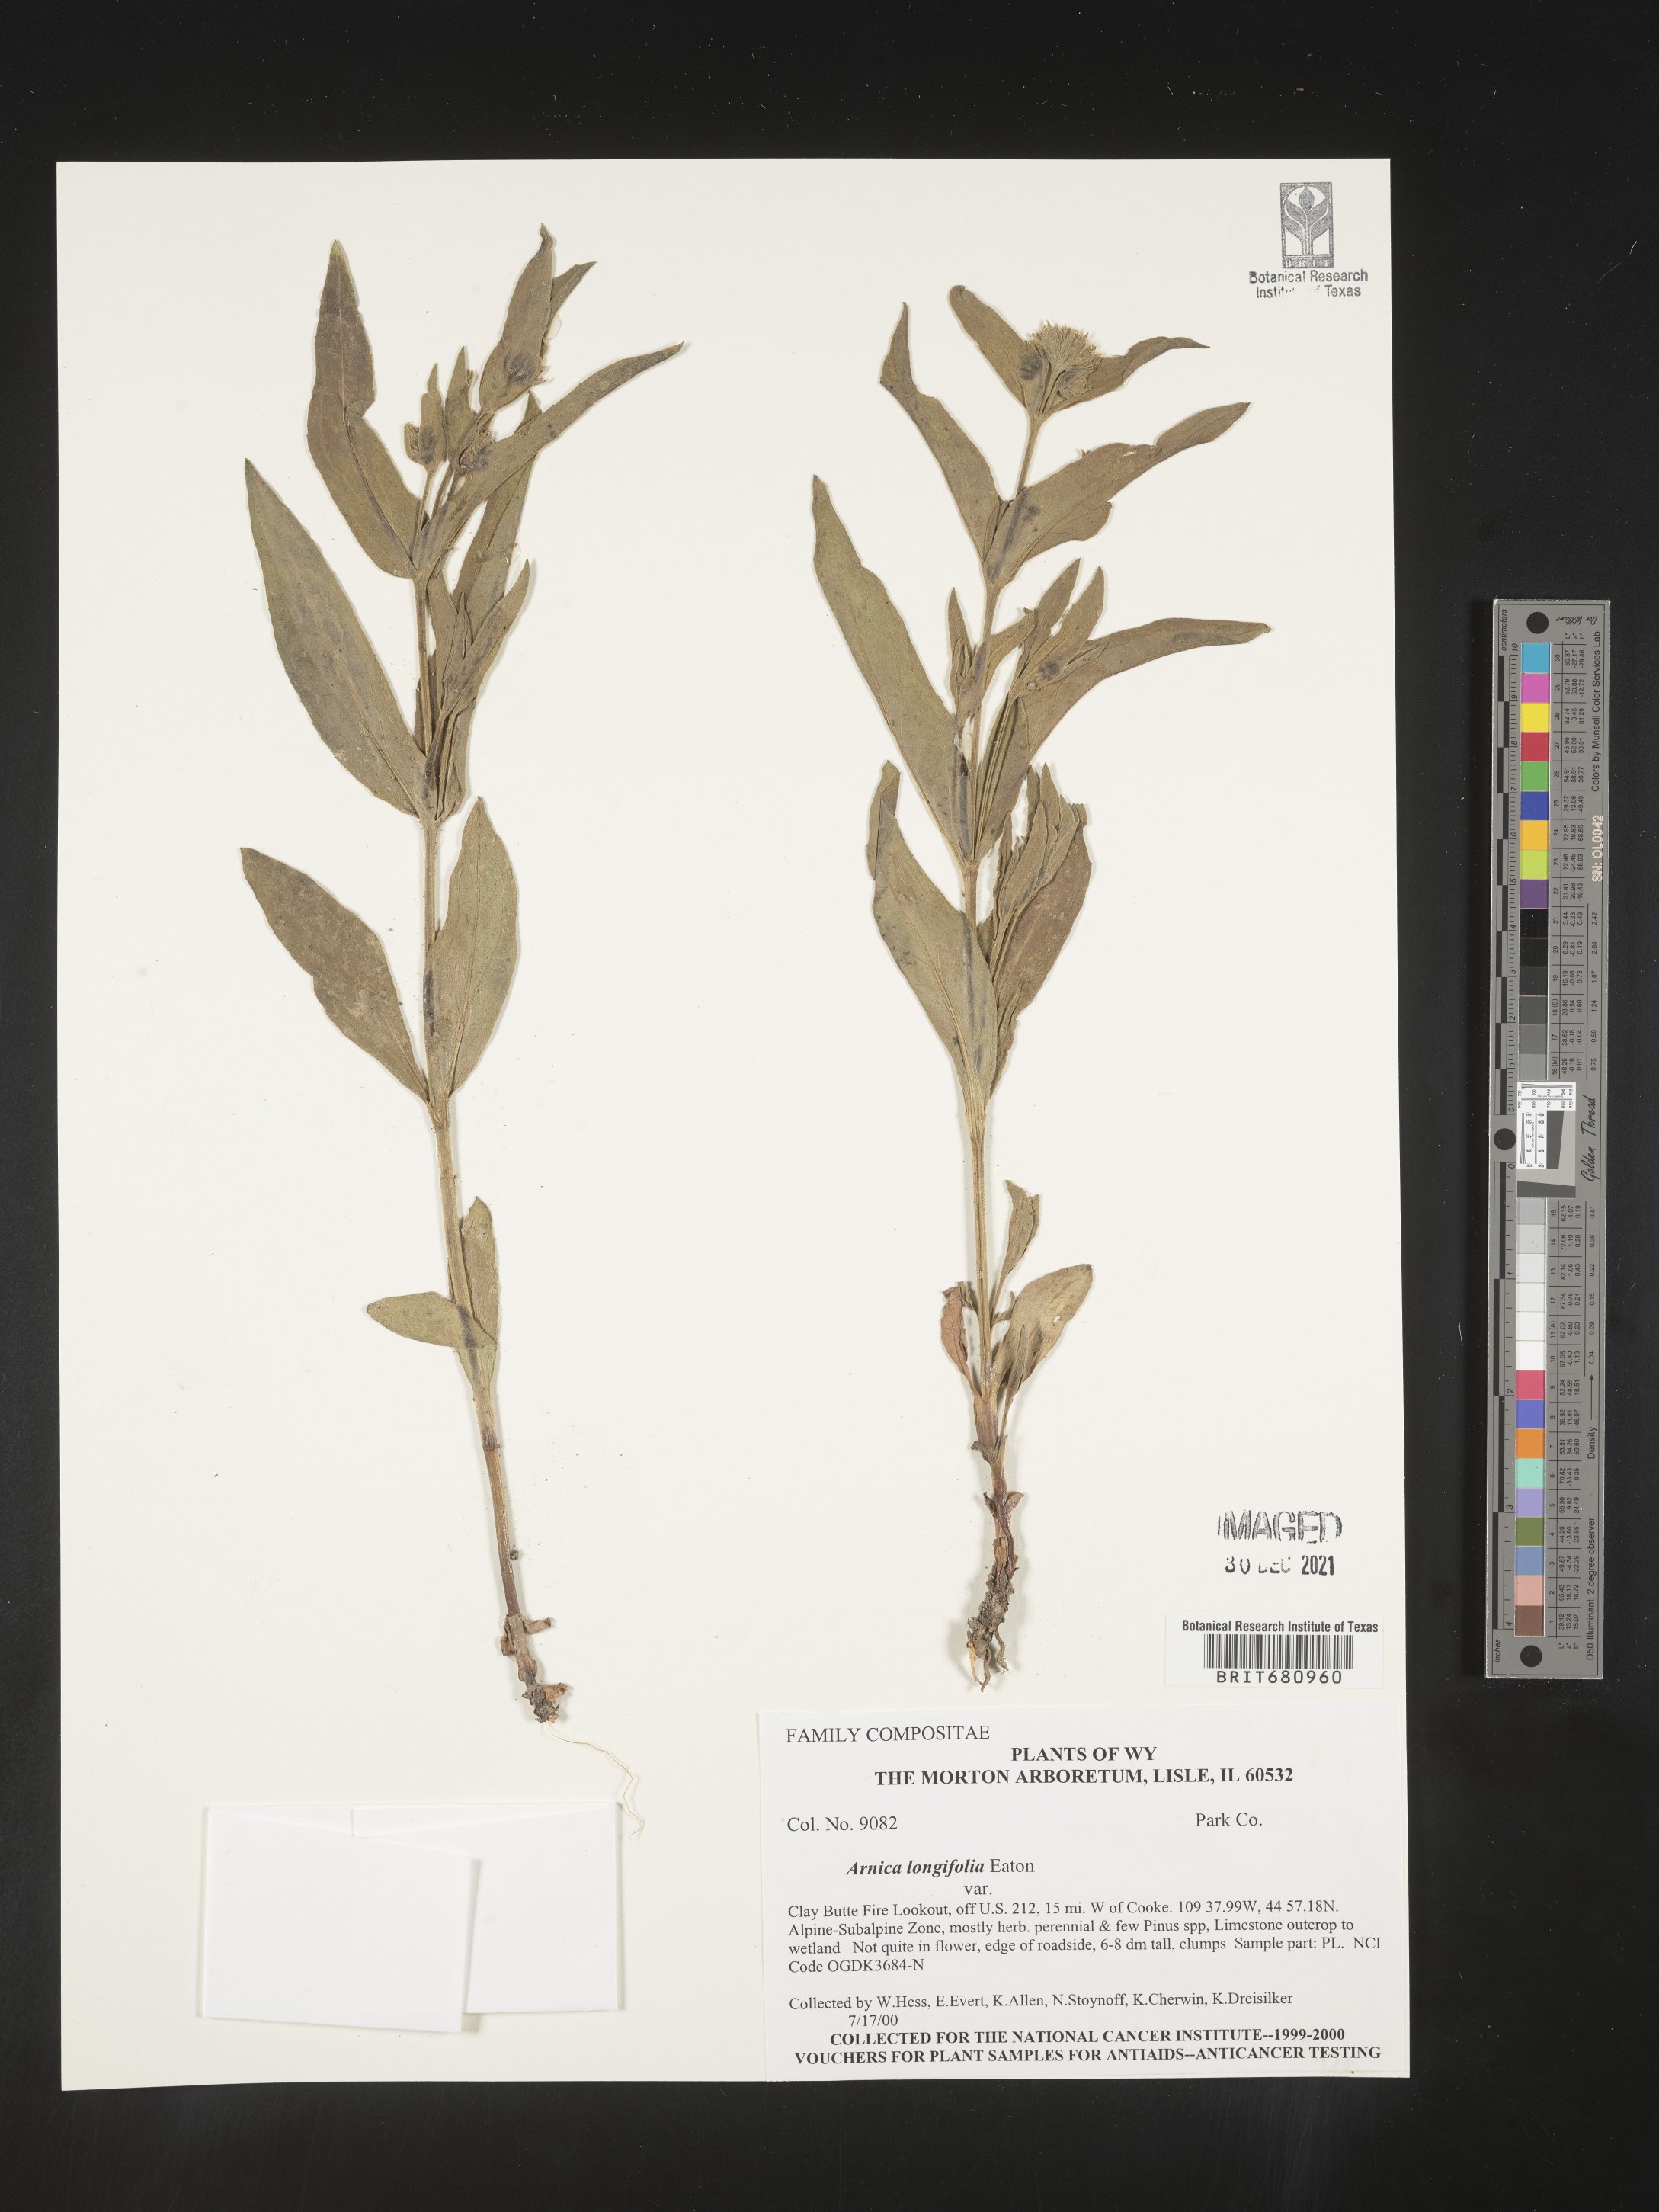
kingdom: Plantae
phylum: Tracheophyta
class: Magnoliopsida
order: Asterales
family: Asteraceae
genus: Arnica
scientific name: Arnica longifolia
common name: Spear-leaf arnica
